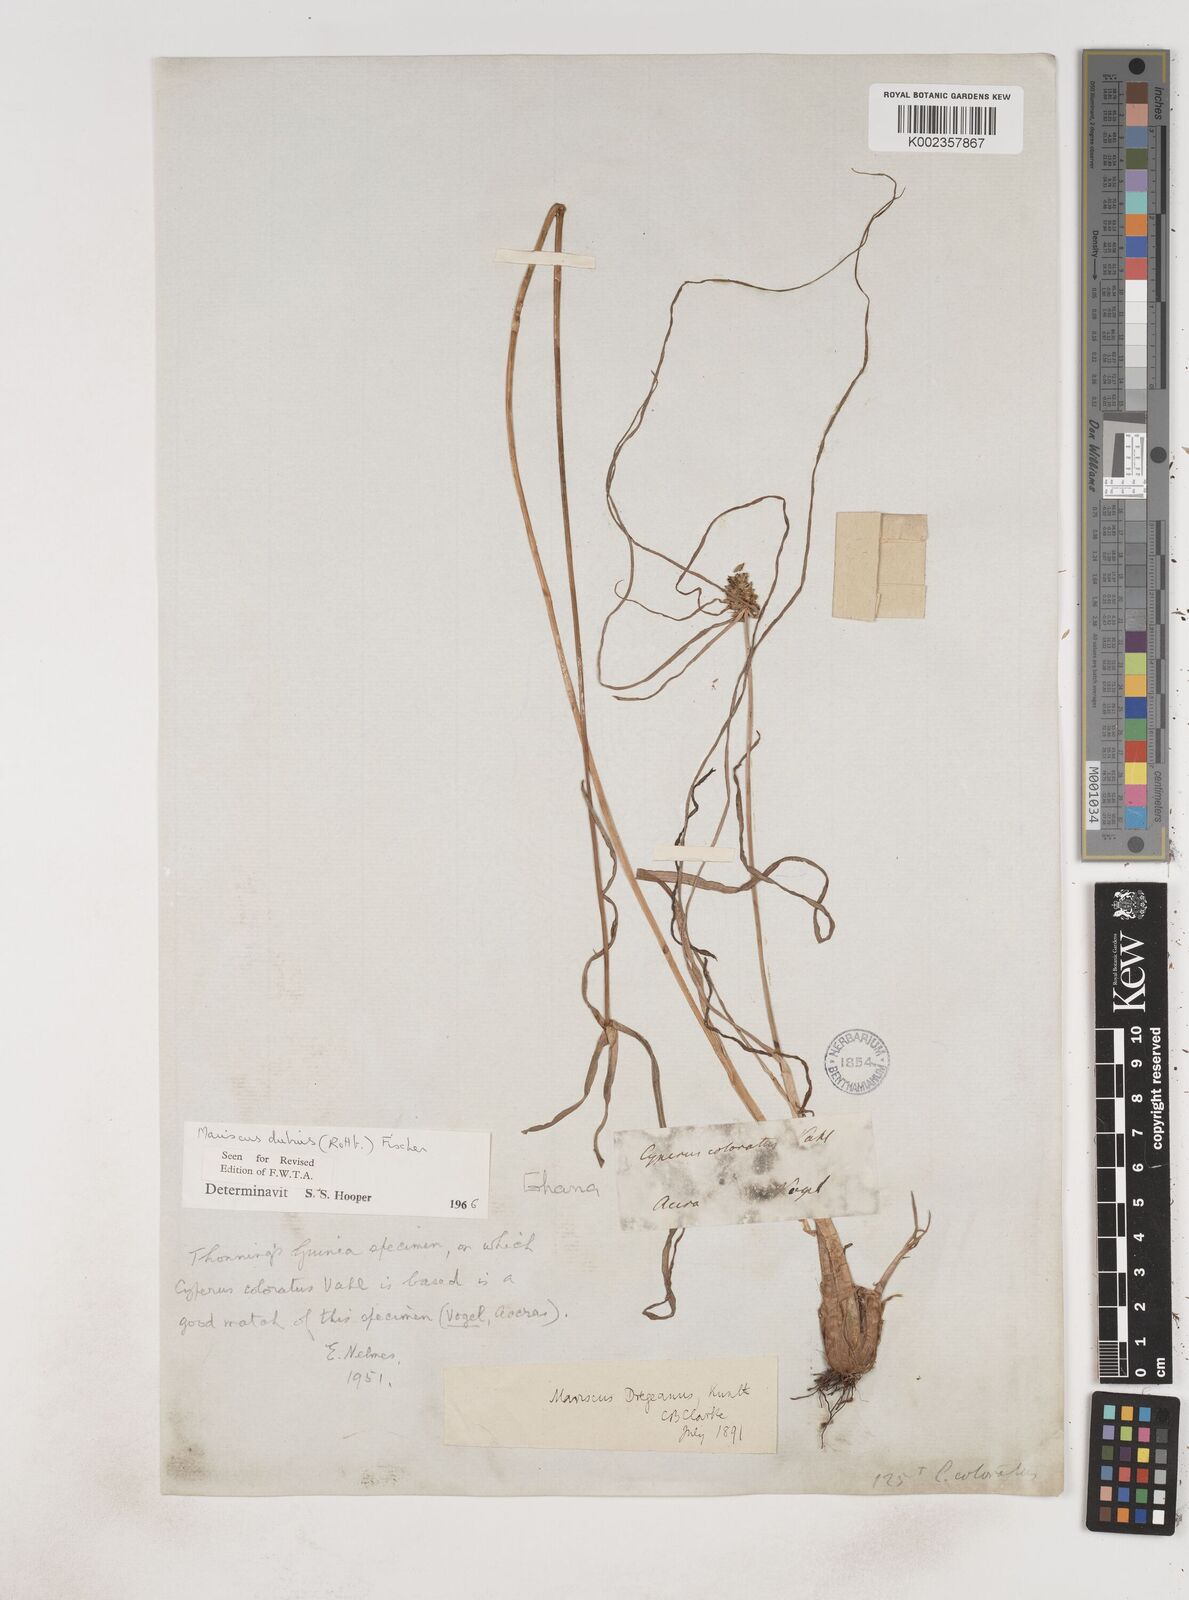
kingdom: Plantae
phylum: Tracheophyta
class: Liliopsida
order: Poales
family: Cyperaceae
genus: Cyperus
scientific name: Cyperus dubius
